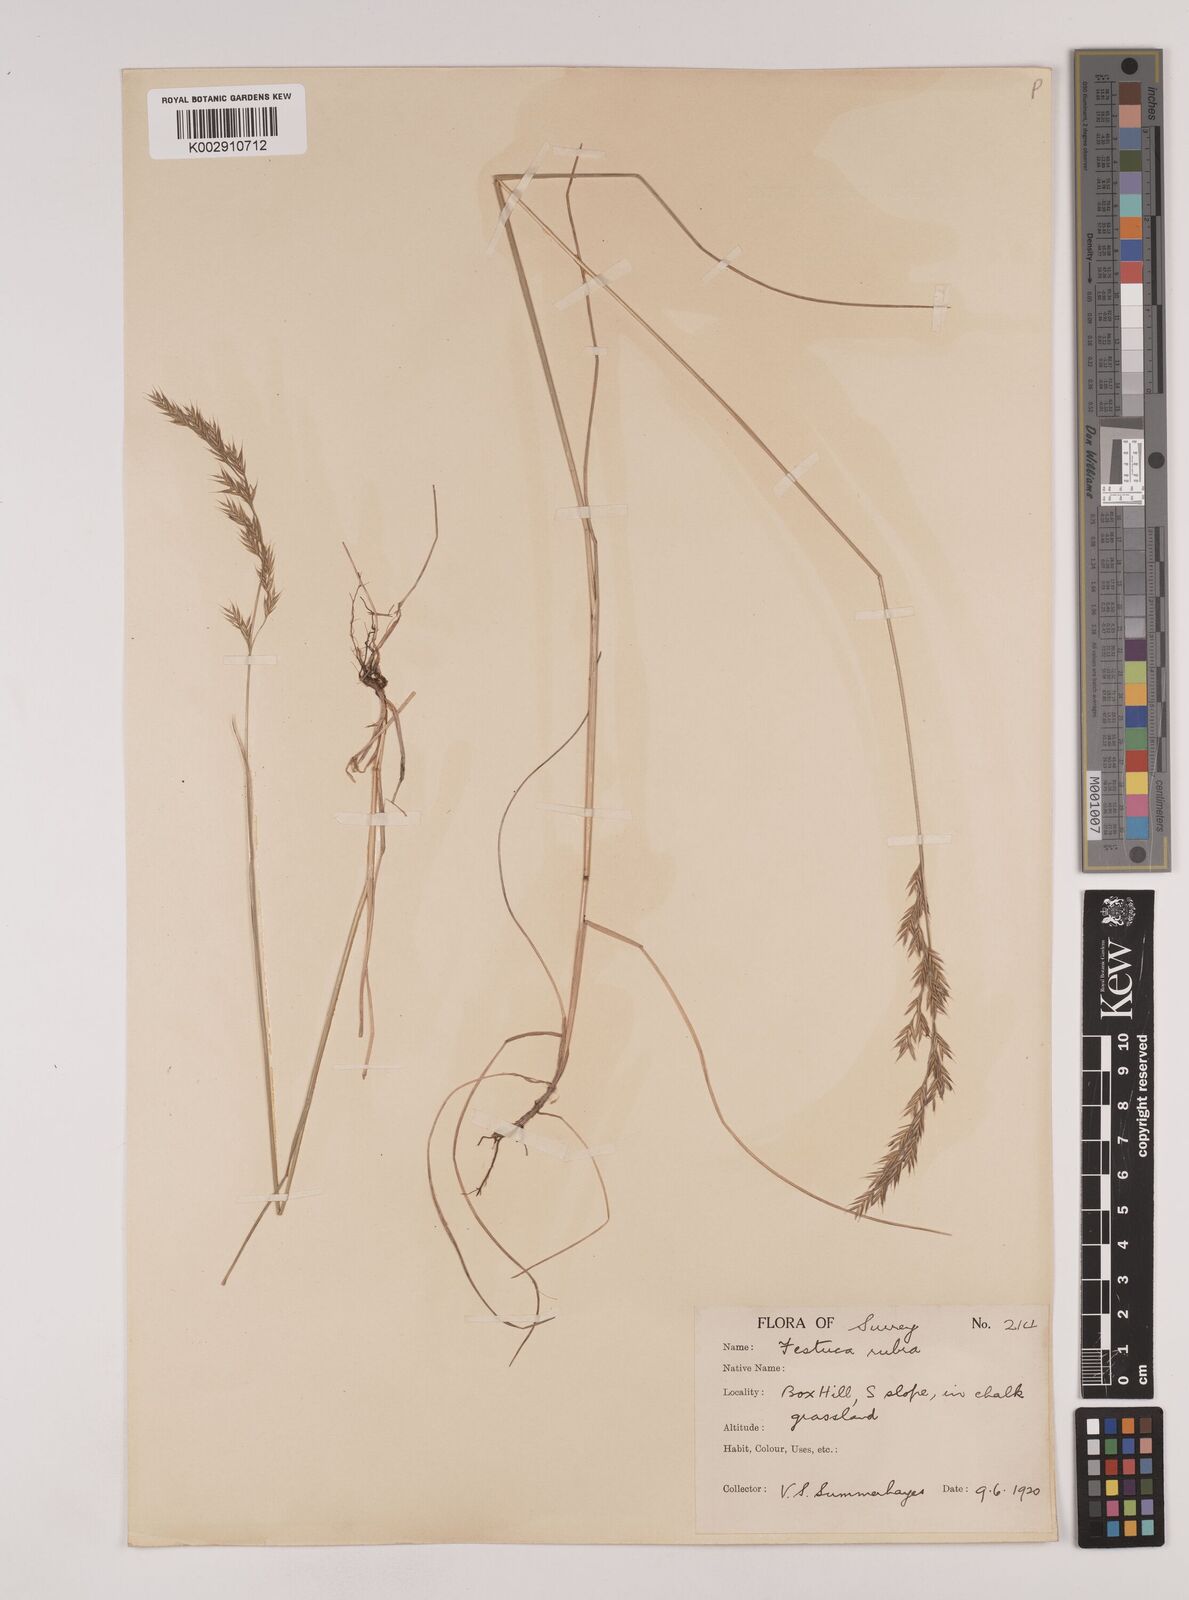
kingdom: Plantae
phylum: Tracheophyta
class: Liliopsida
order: Poales
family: Poaceae
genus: Festuca
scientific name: Festuca rubra
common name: Red fescue
